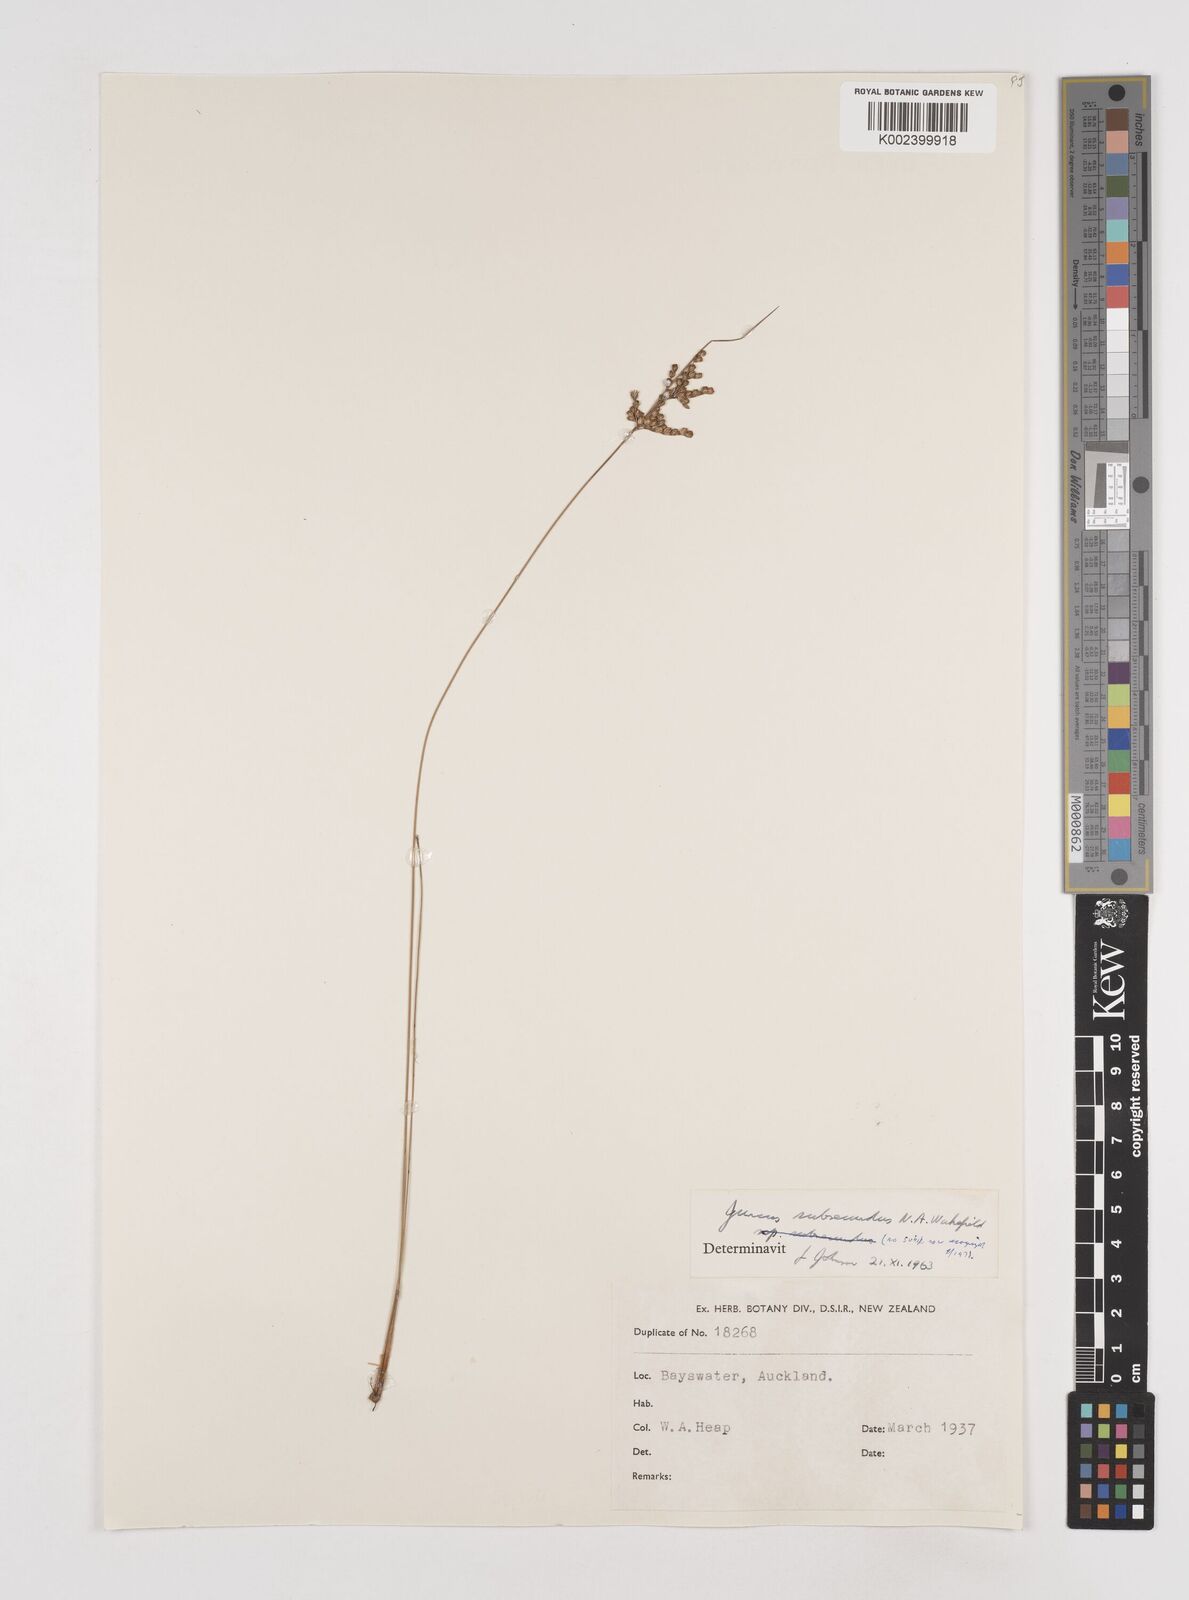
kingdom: Plantae
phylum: Tracheophyta
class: Liliopsida
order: Poales
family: Juncaceae
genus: Juncus
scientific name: Juncus subsecundus
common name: Fingered rush
